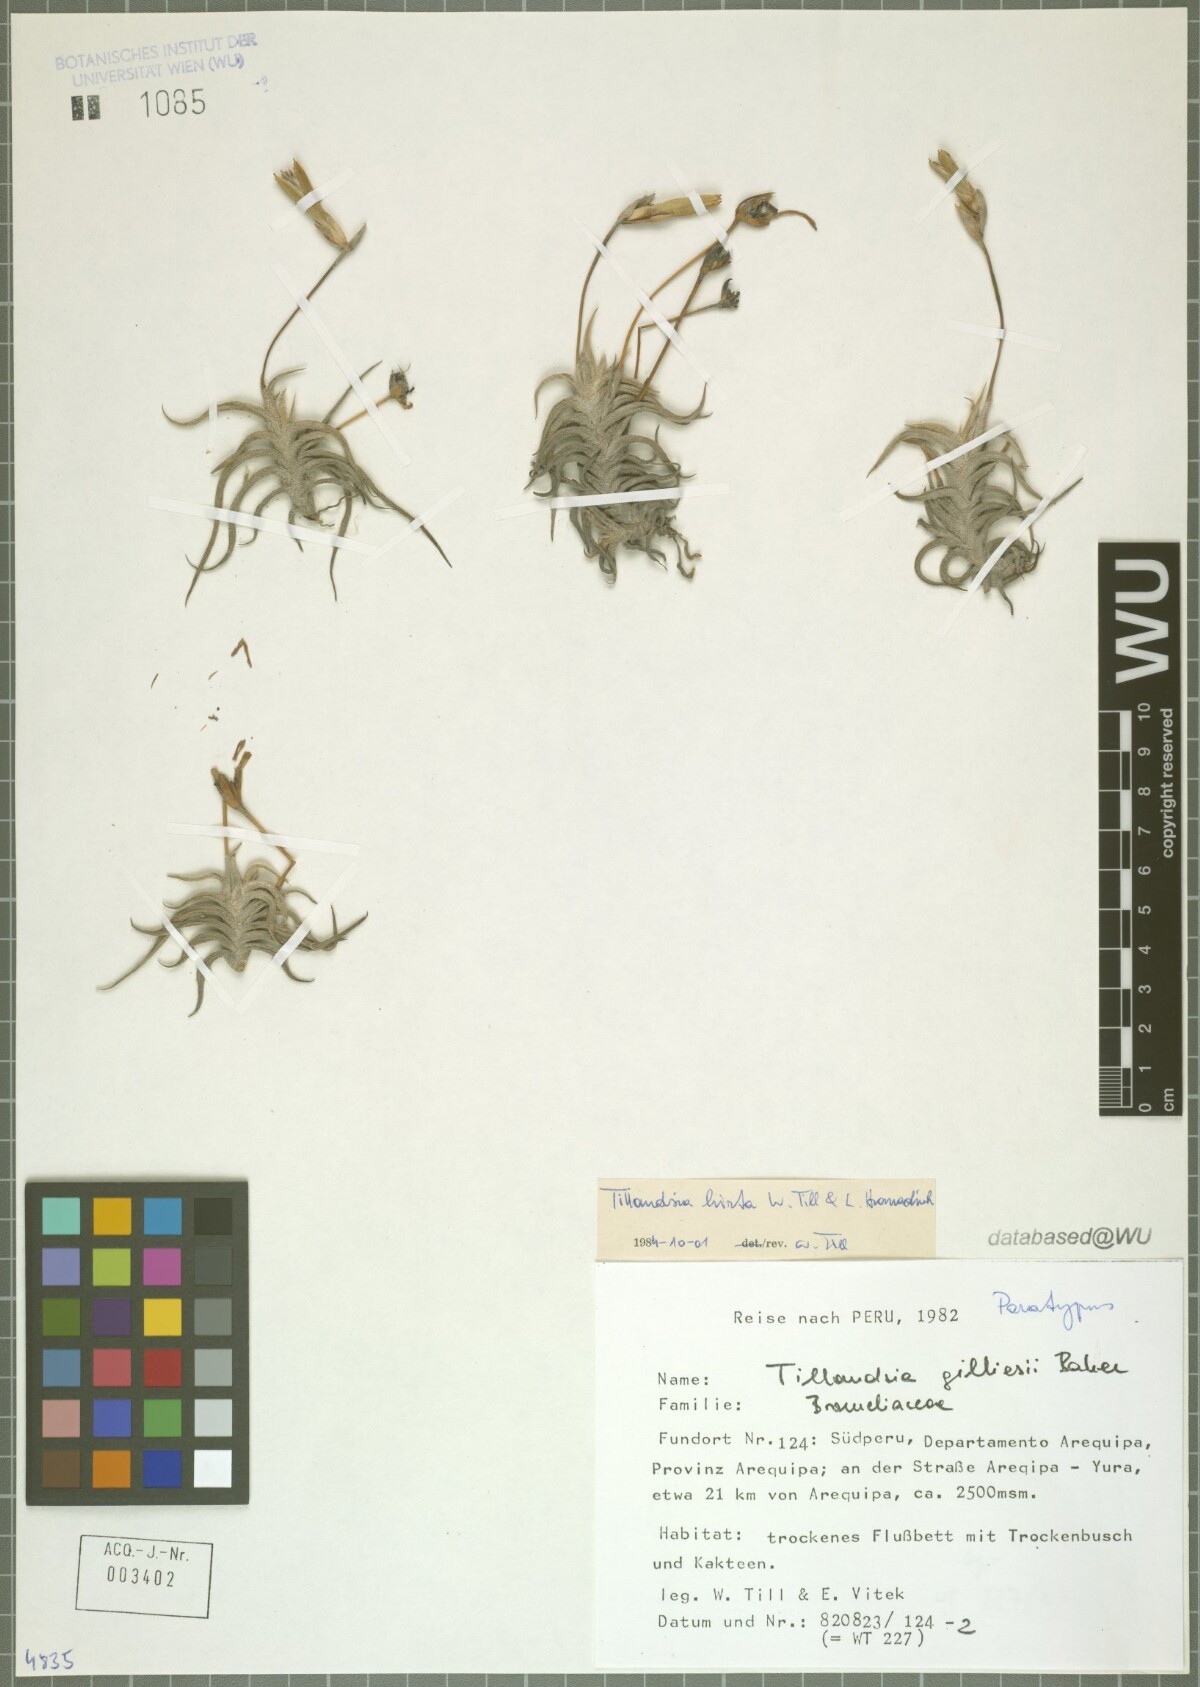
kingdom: Plantae
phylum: Tracheophyta
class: Liliopsida
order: Poales
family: Bromeliaceae
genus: Tillandsia
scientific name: Tillandsia hirta
